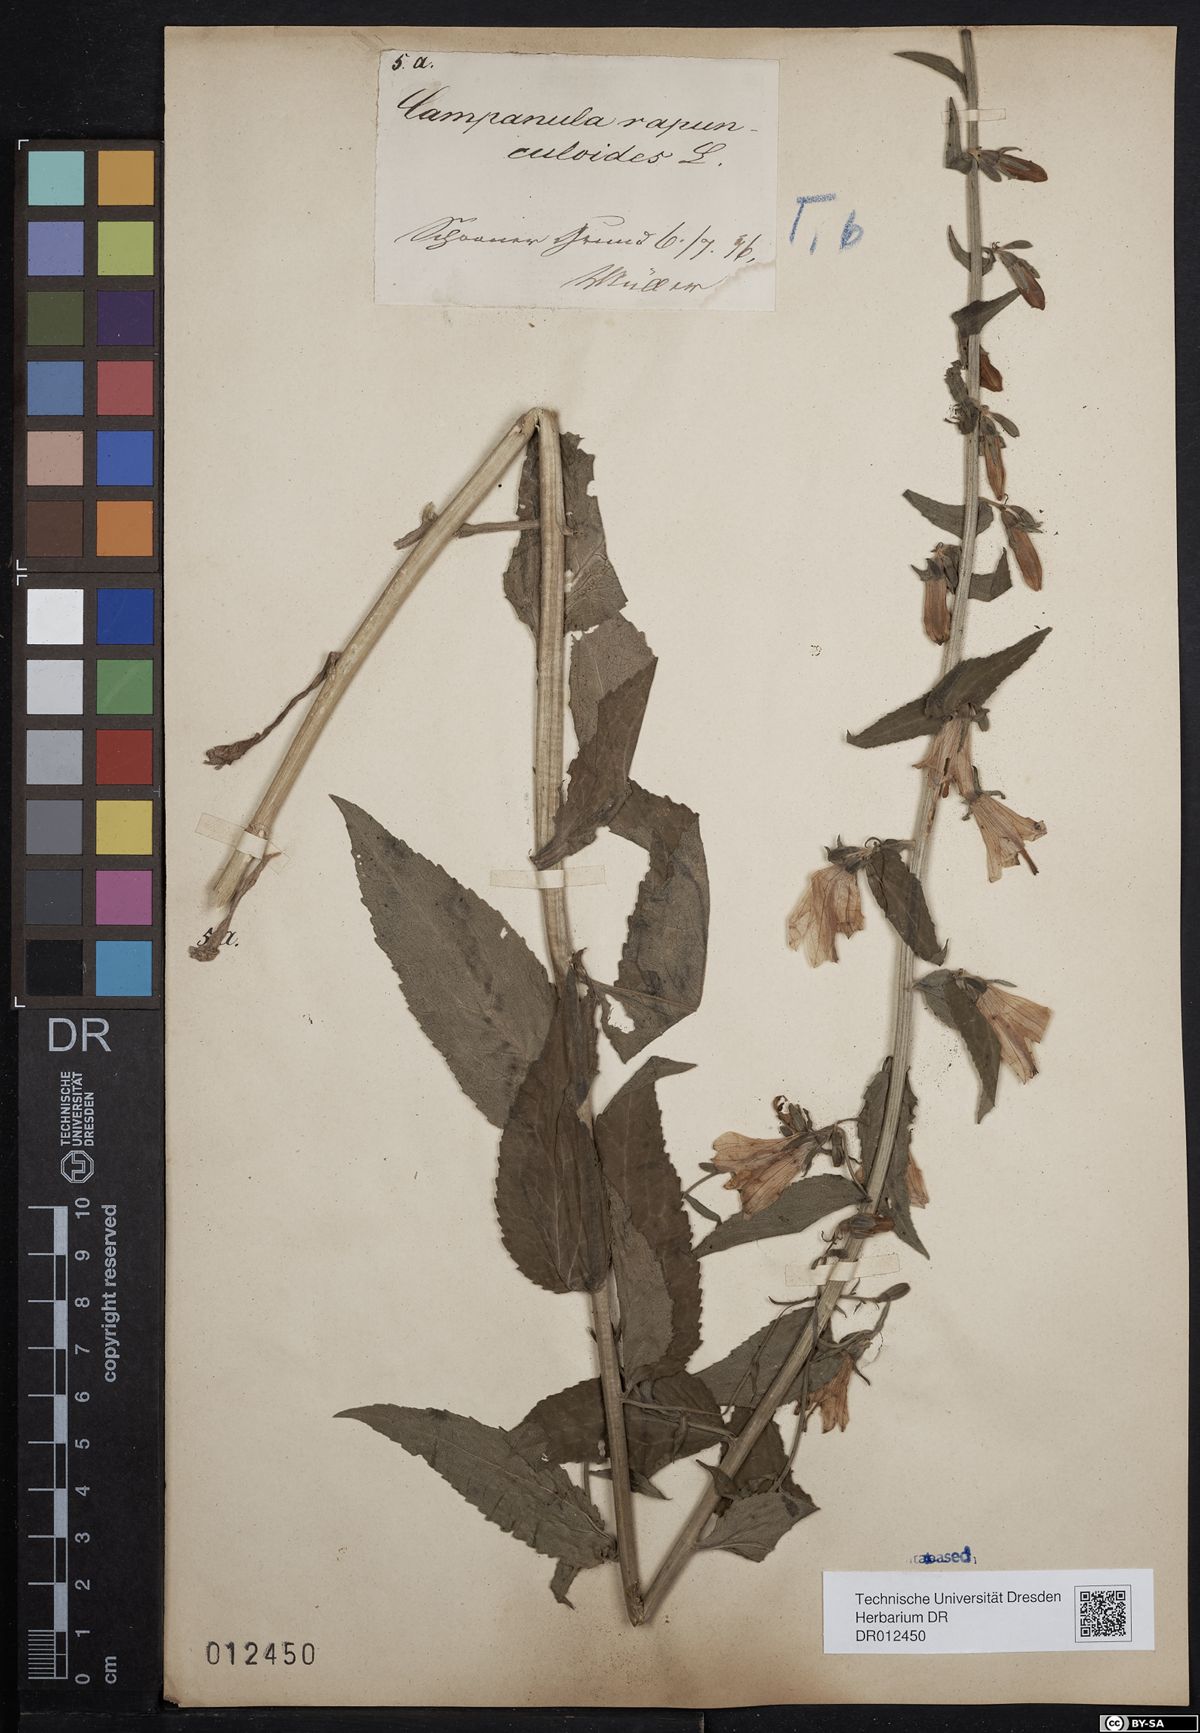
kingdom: Plantae
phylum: Tracheophyta
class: Magnoliopsida
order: Asterales
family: Campanulaceae
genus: Campanula
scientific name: Campanula rapunculoides
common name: Creeping bellflower
